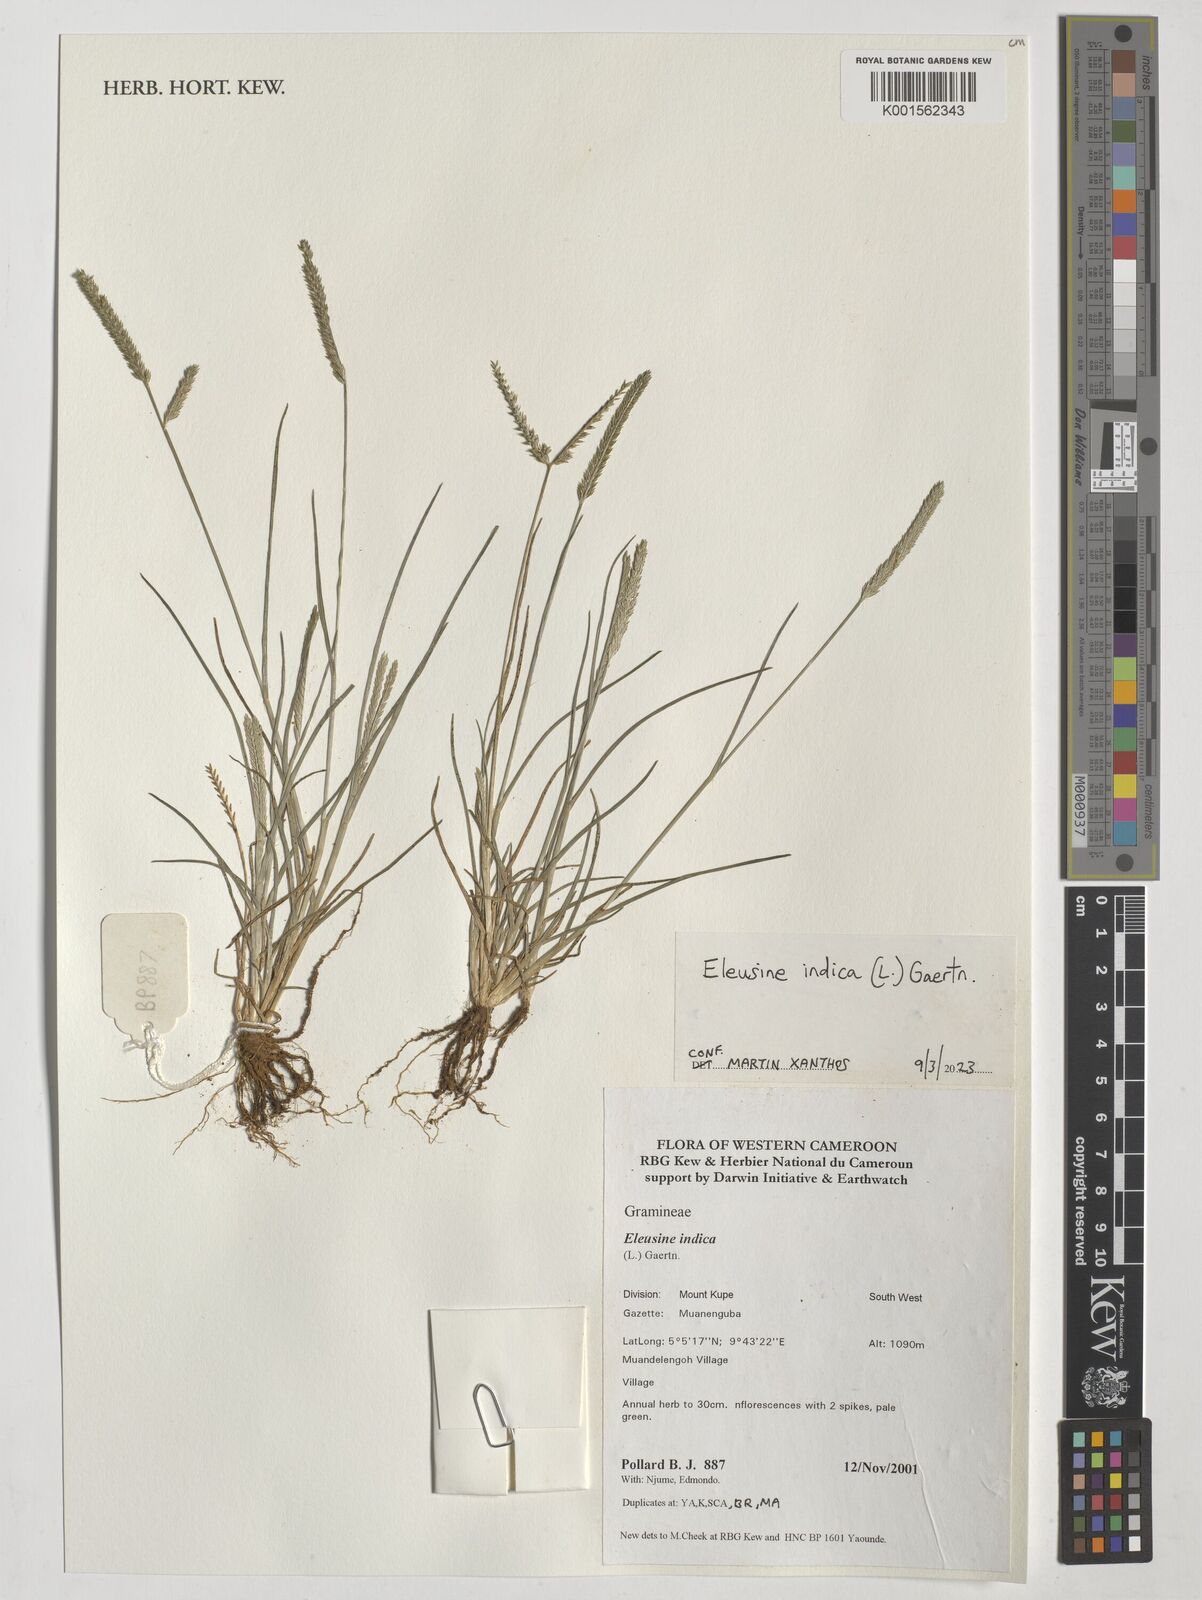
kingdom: Plantae
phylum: Tracheophyta
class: Liliopsida
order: Poales
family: Poaceae
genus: Eleusine
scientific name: Eleusine indica
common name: Yard-grass
